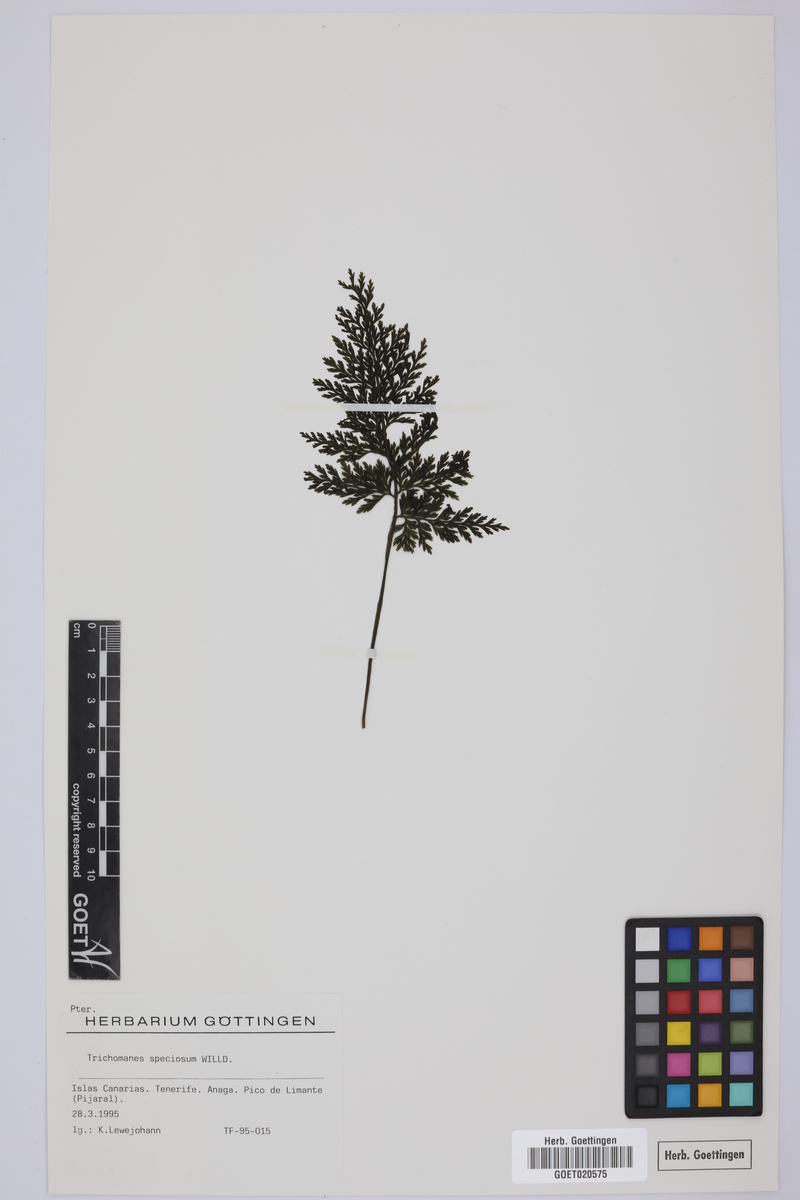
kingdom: Plantae
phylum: Tracheophyta
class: Polypodiopsida
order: Hymenophyllales
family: Hymenophyllaceae
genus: Vandenboschia
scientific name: Vandenboschia speciosa
